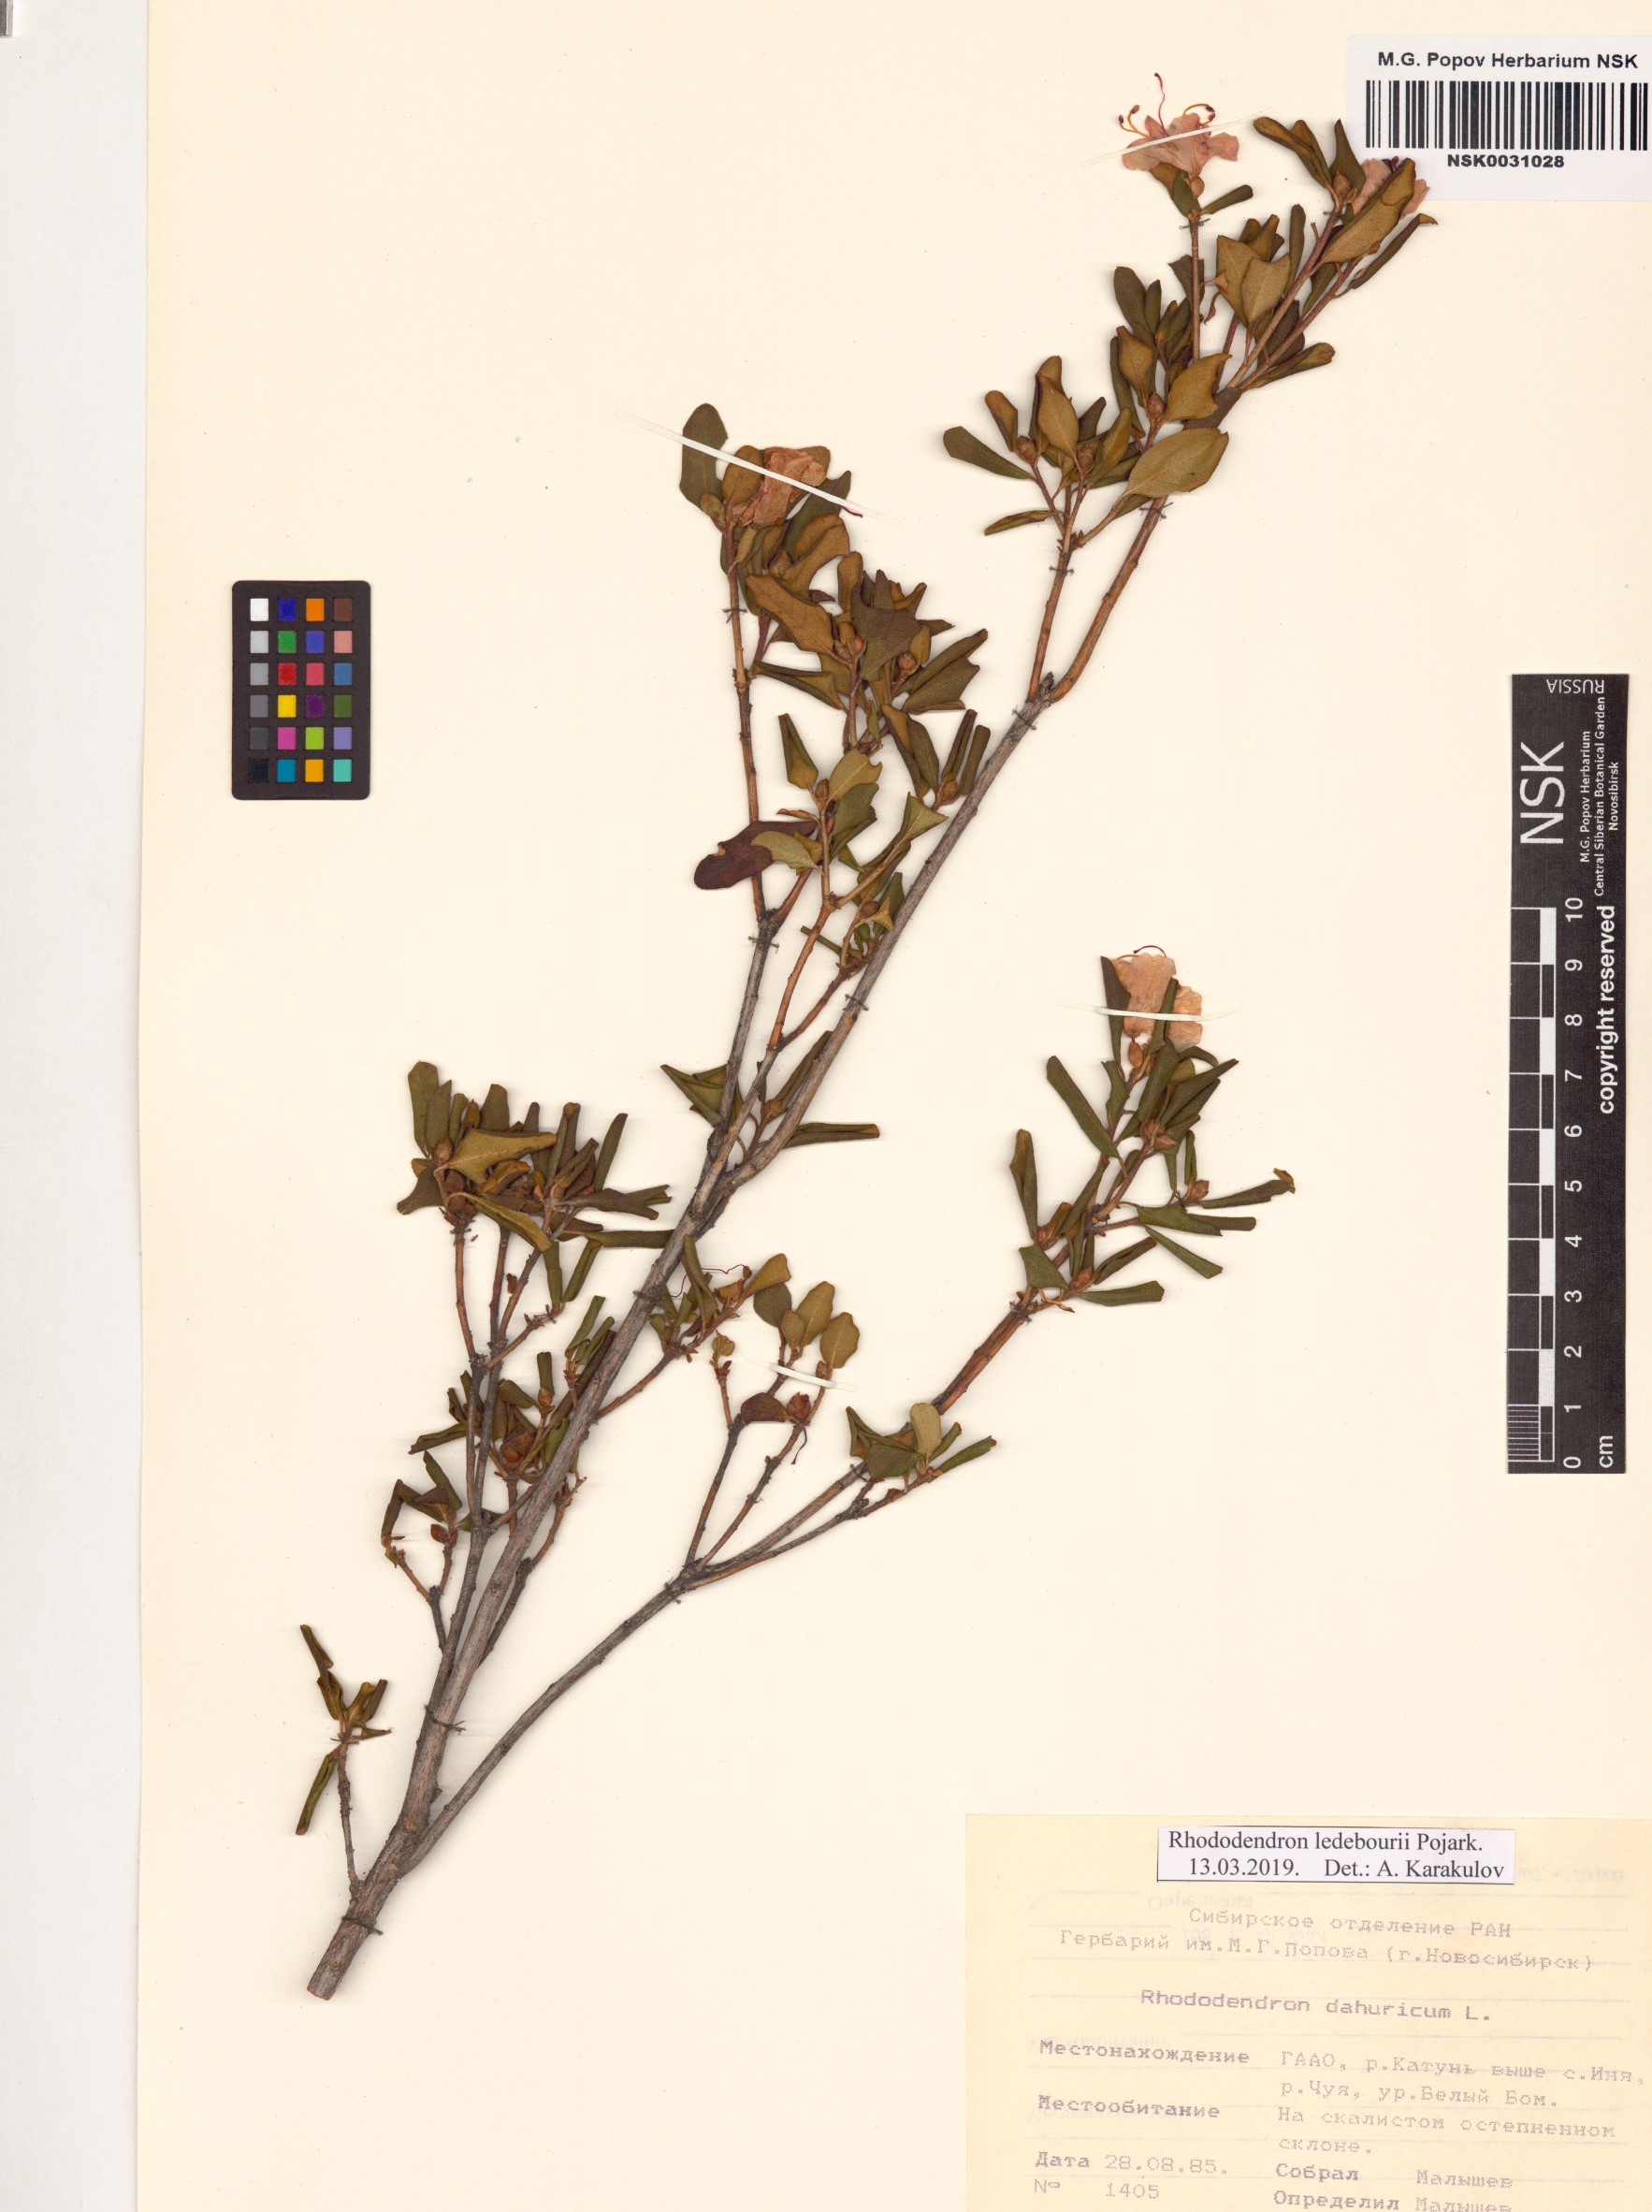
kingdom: Plantae
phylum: Tracheophyta
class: Magnoliopsida
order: Ericales
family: Ericaceae
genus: Rhododendron
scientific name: Rhododendron dauricum
